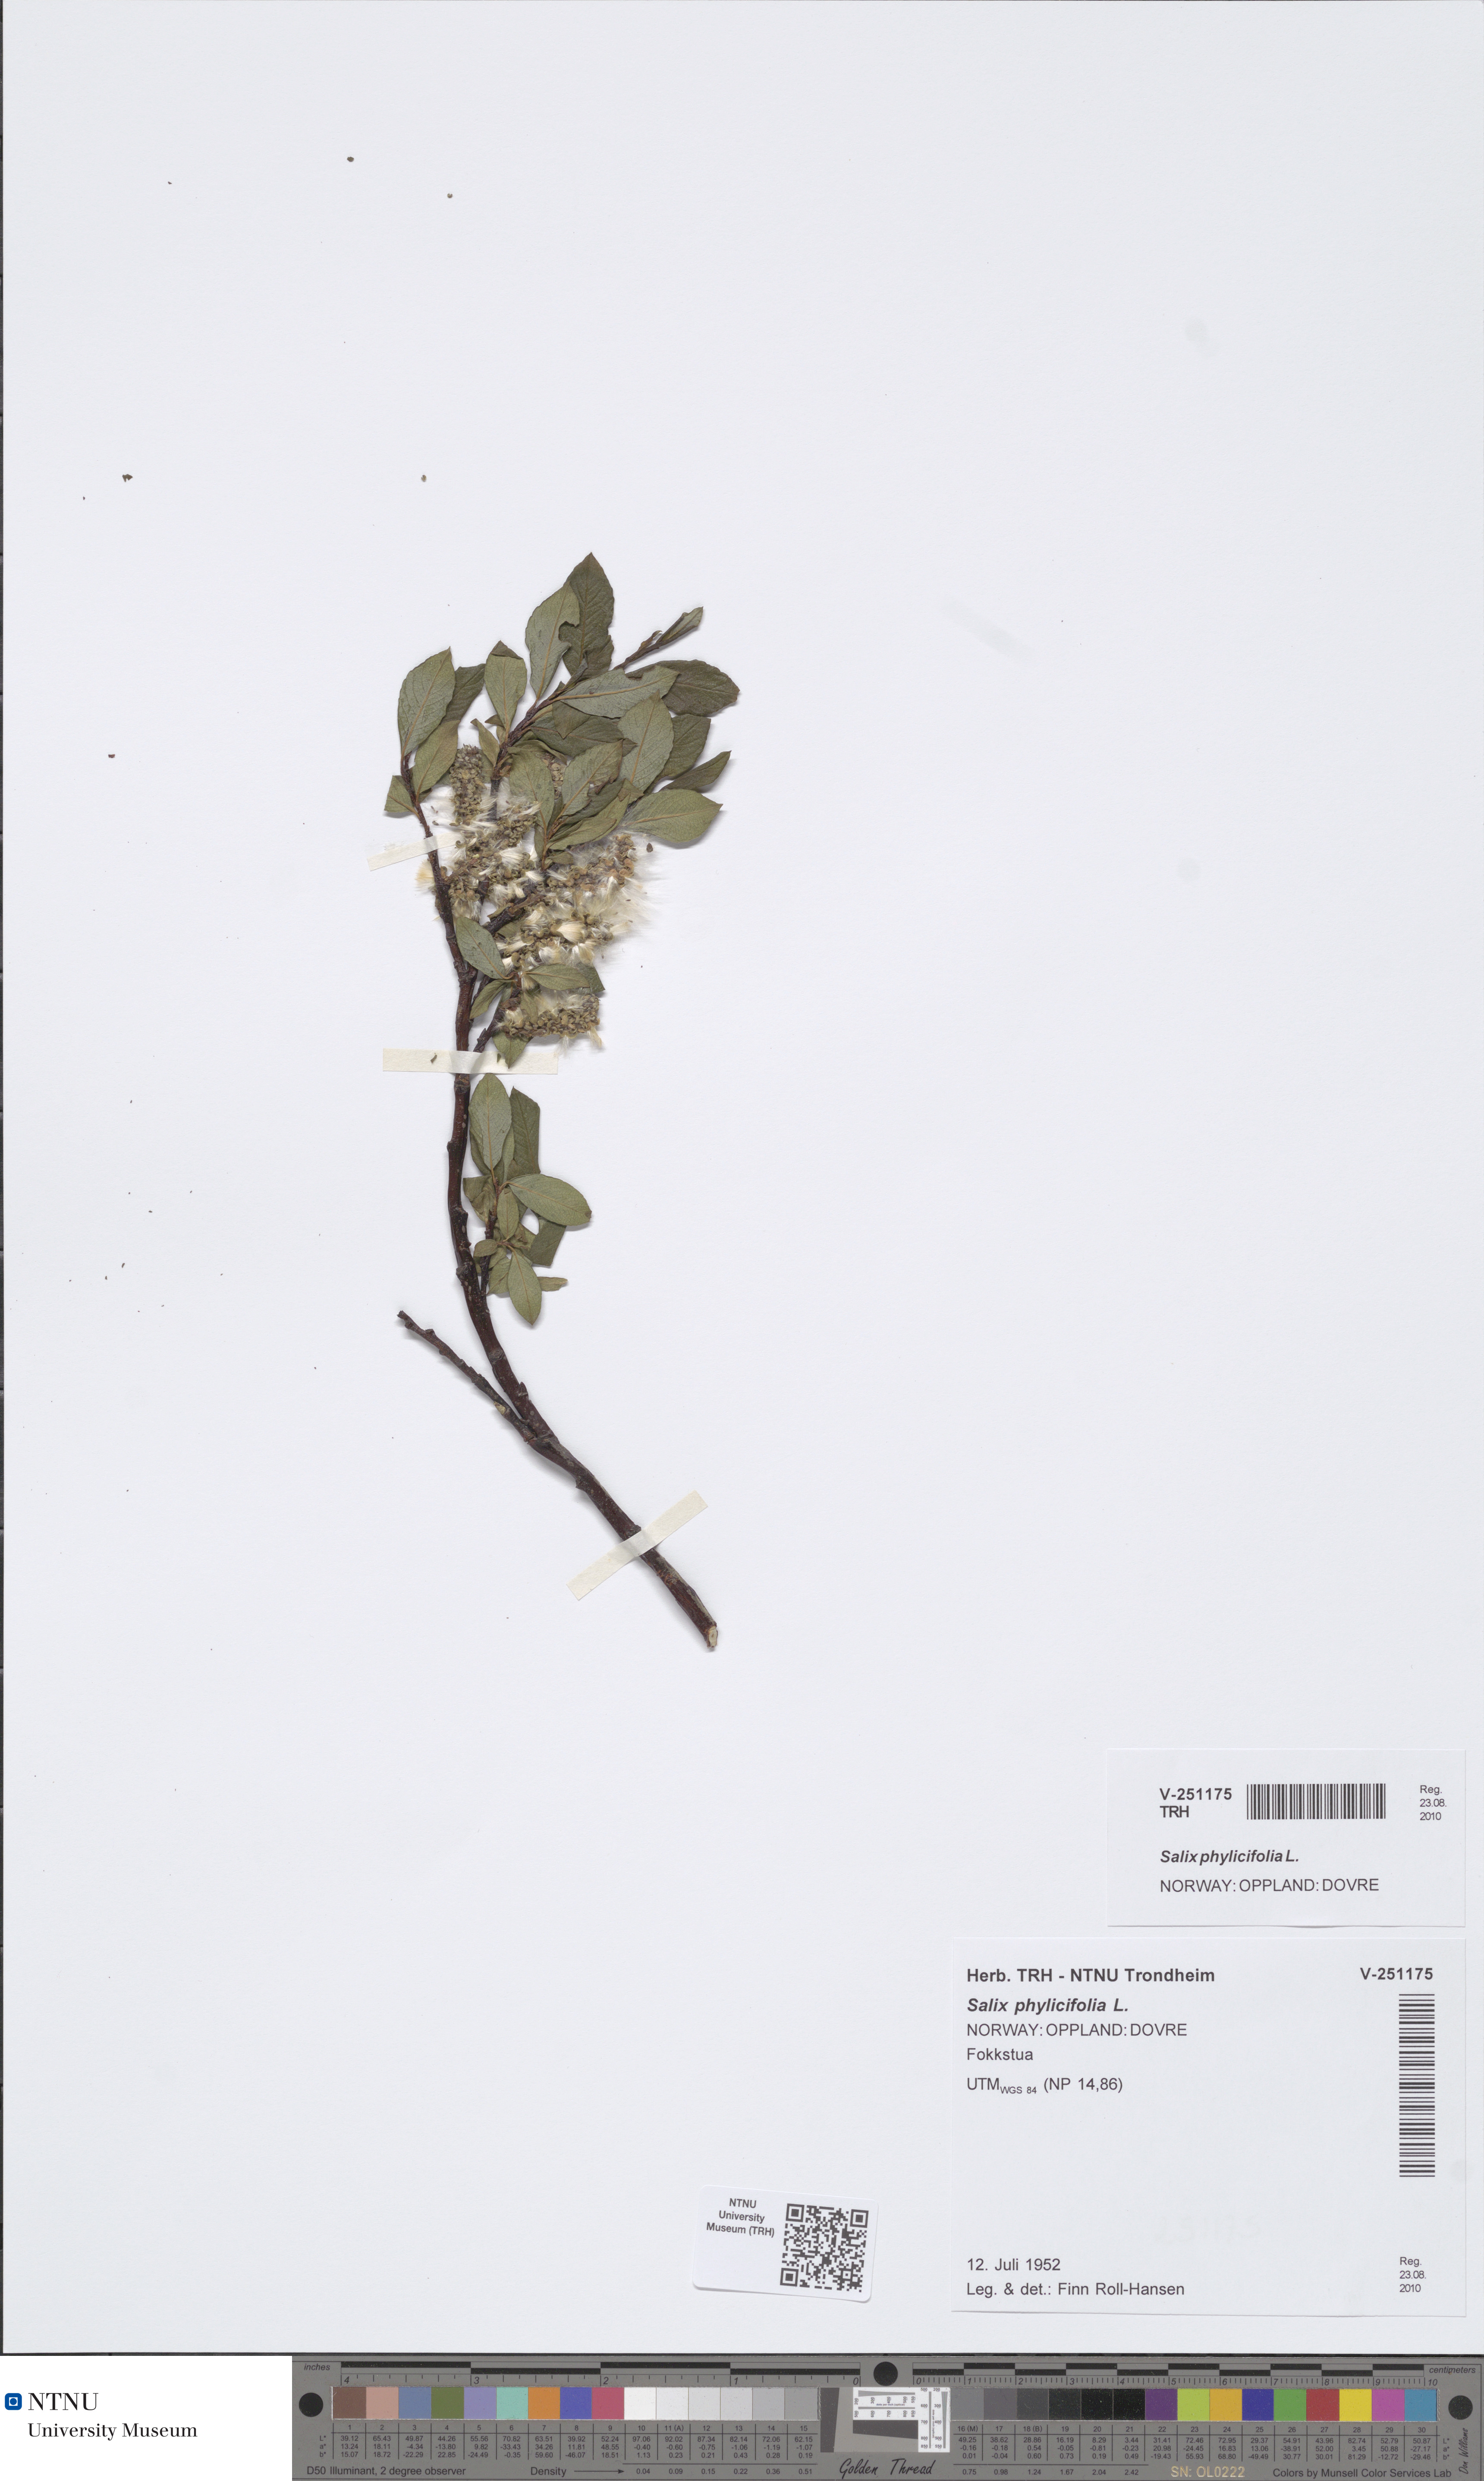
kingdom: Plantae
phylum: Tracheophyta
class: Magnoliopsida
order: Malpighiales
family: Salicaceae
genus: Salix
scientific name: Salix phylicifolia
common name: Tea-leaved willow
